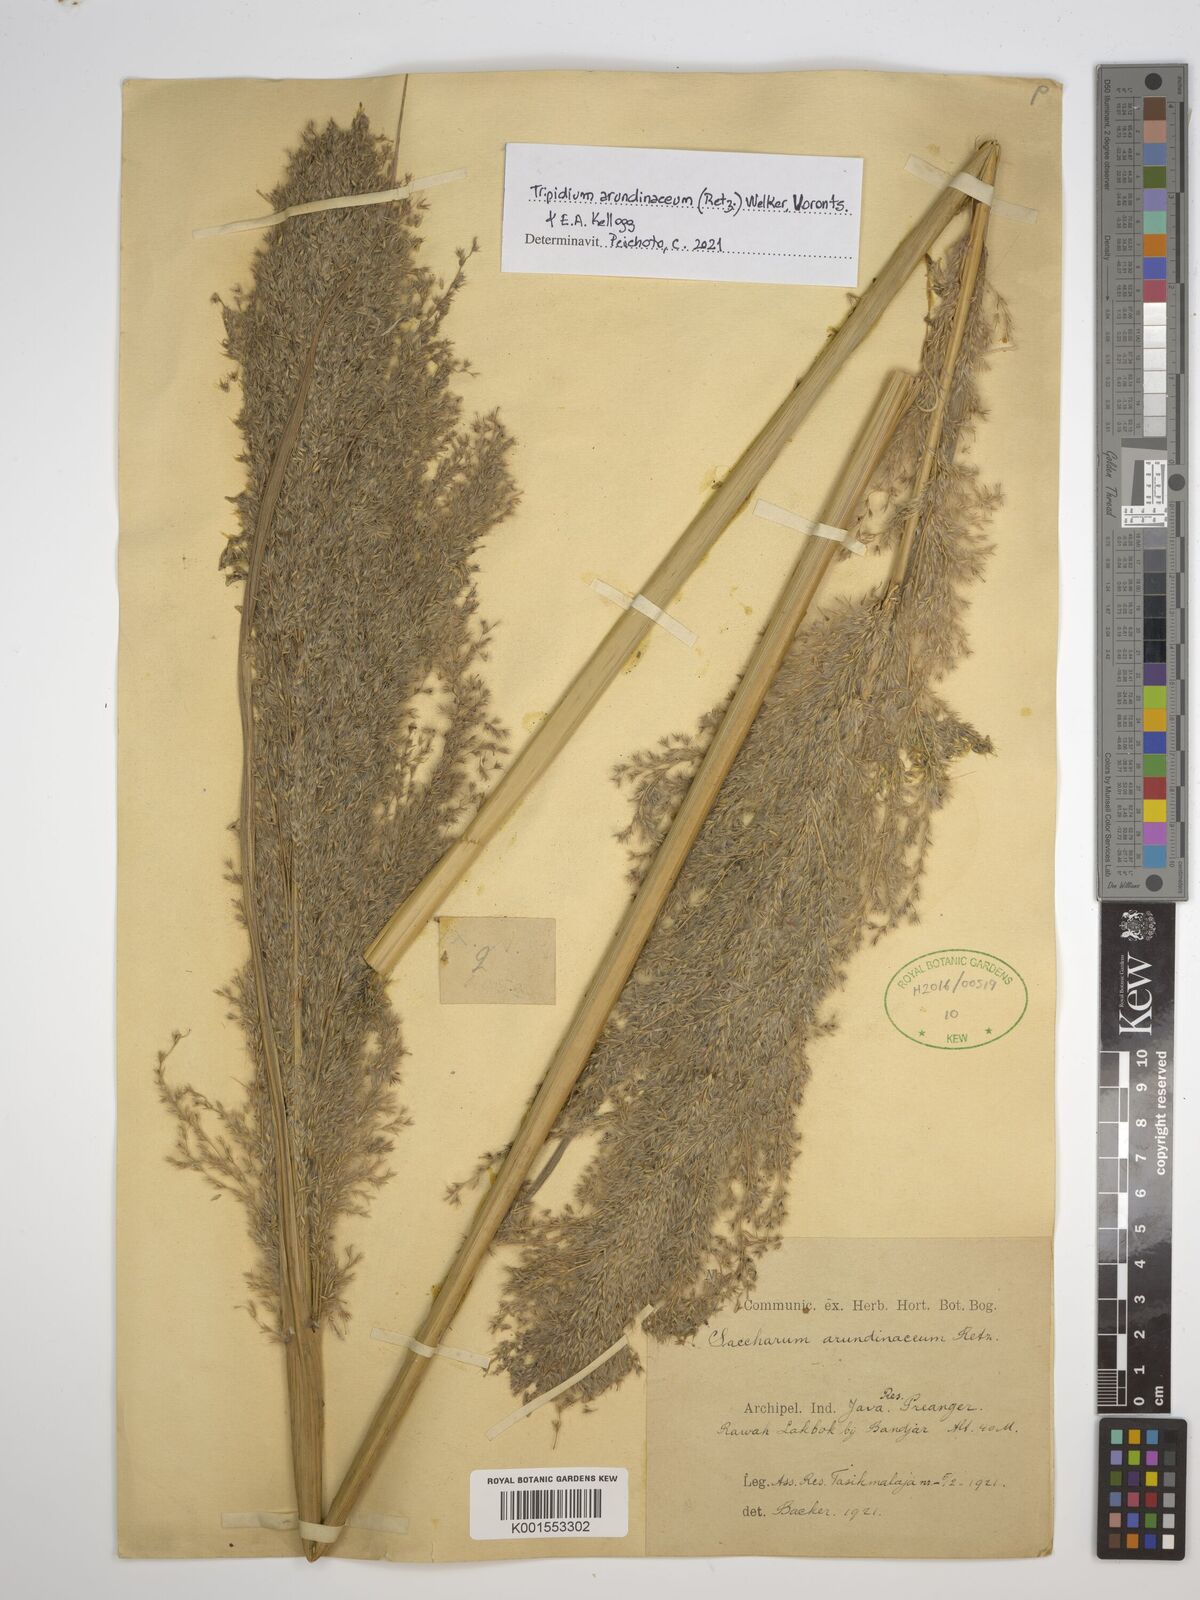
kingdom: Plantae
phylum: Tracheophyta
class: Liliopsida
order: Poales
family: Poaceae
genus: Tripidium
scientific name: Tripidium arundinaceum
